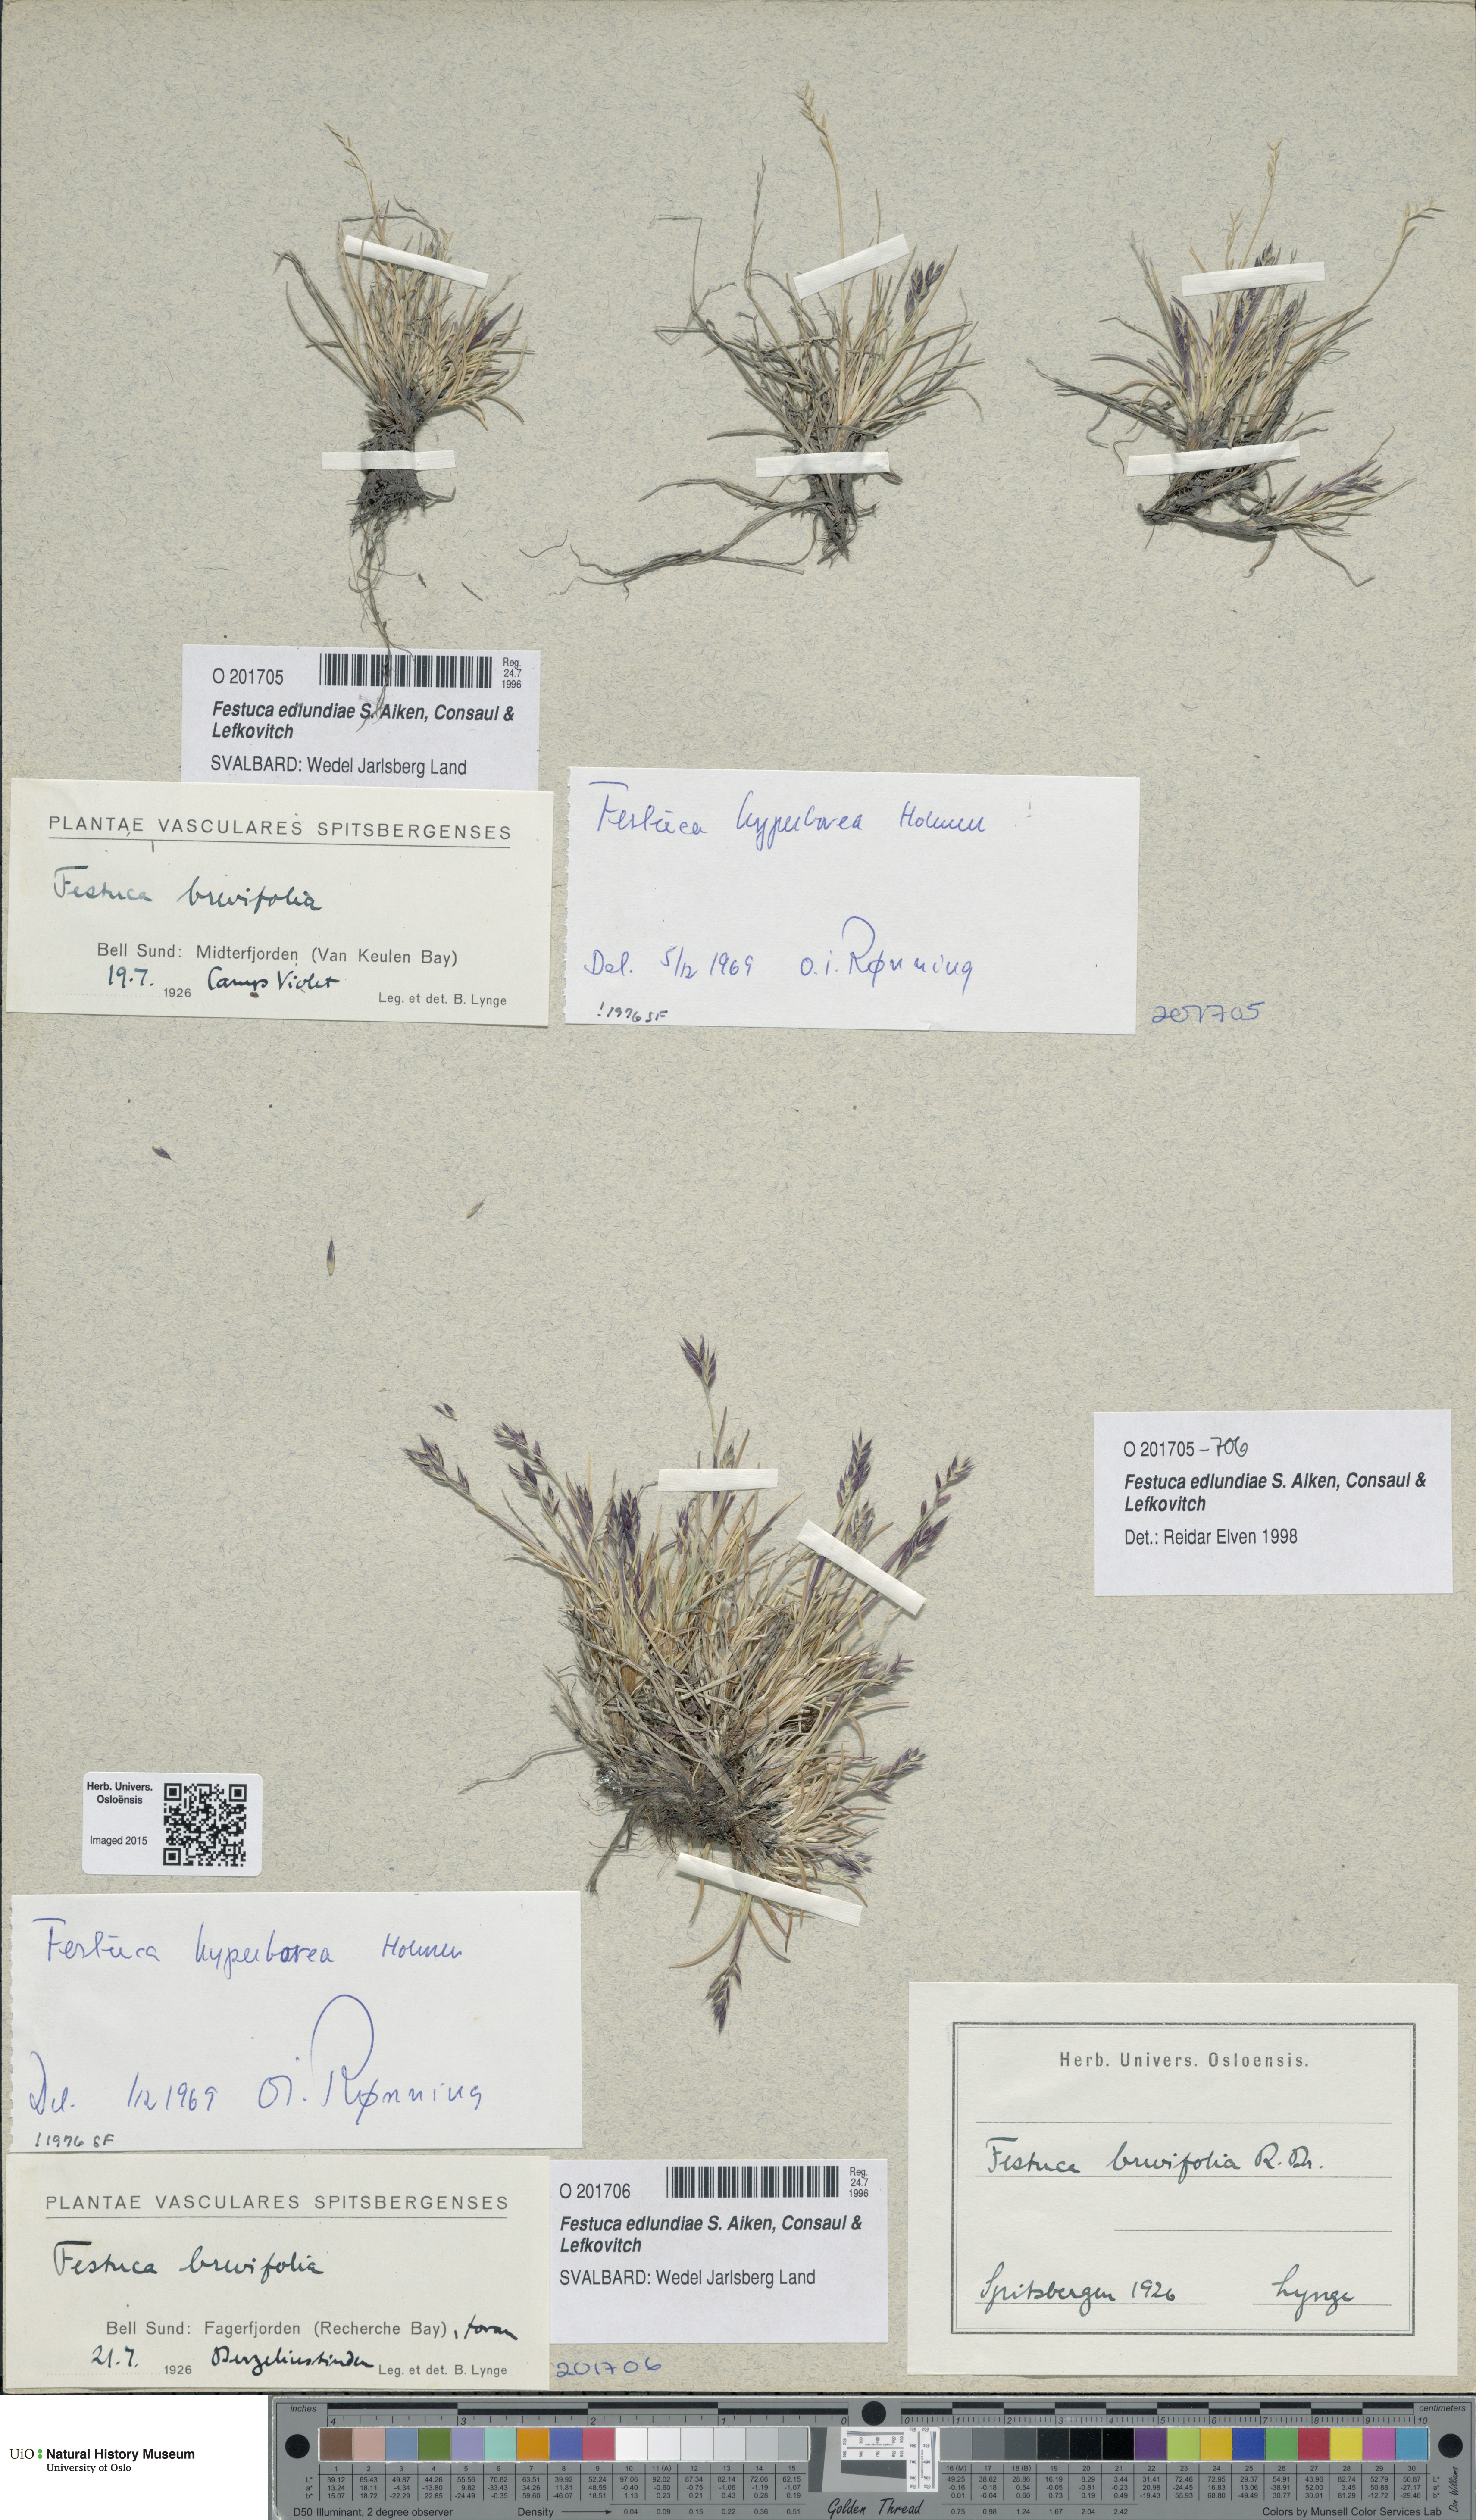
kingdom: Plantae
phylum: Tracheophyta
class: Liliopsida
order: Poales
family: Poaceae
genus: Festuca
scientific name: Festuca edlundiae
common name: Edlund's fescue
